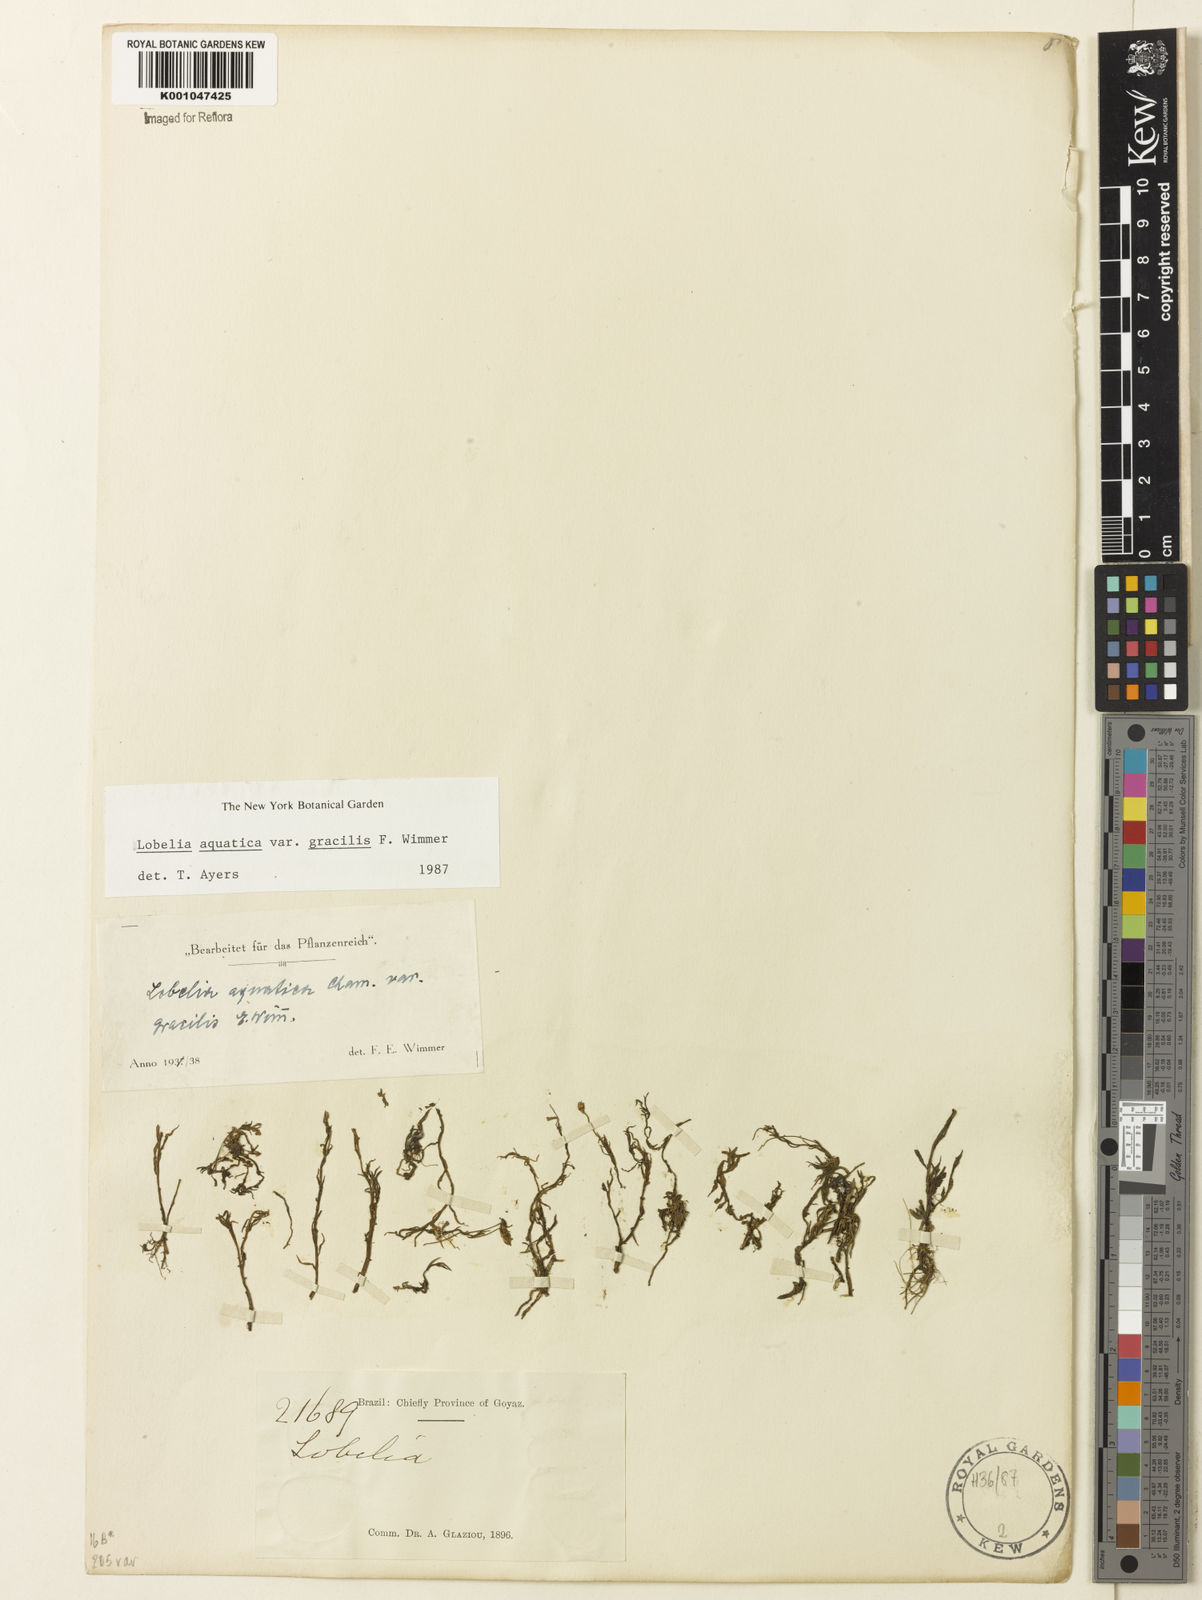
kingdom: Plantae
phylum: Tracheophyta
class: Magnoliopsida
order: Asterales
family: Campanulaceae
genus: Lobelia
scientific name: Lobelia aquatica
